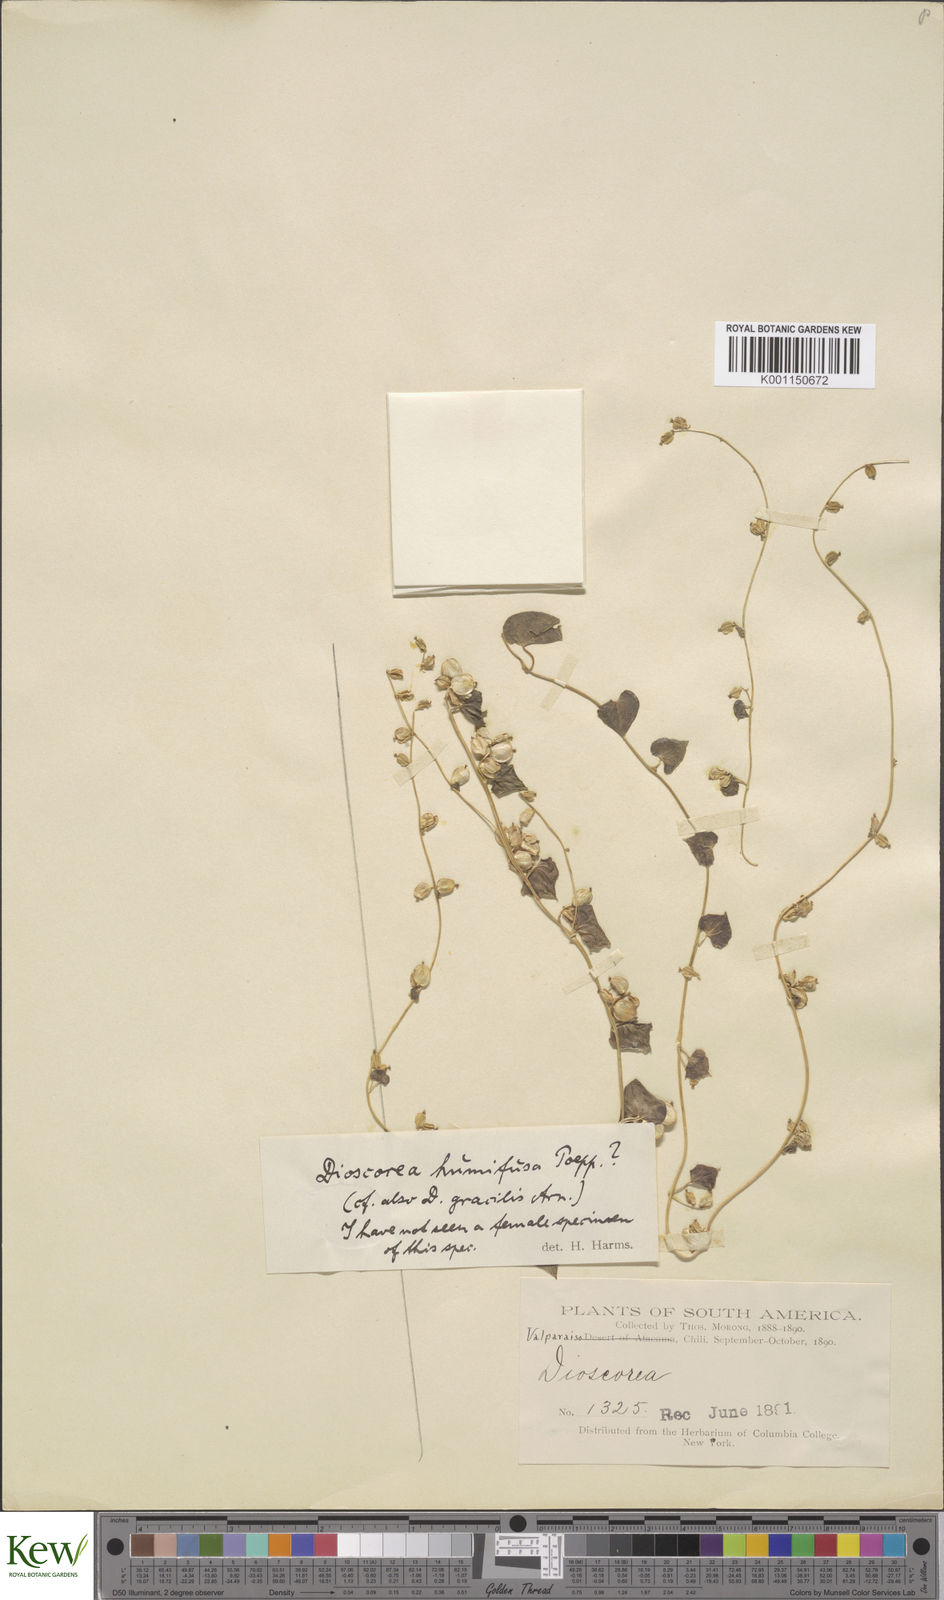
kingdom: Plantae
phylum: Tracheophyta
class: Liliopsida
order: Dioscoreales
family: Dioscoreaceae
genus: Dioscorea
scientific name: Dioscorea humifusa
